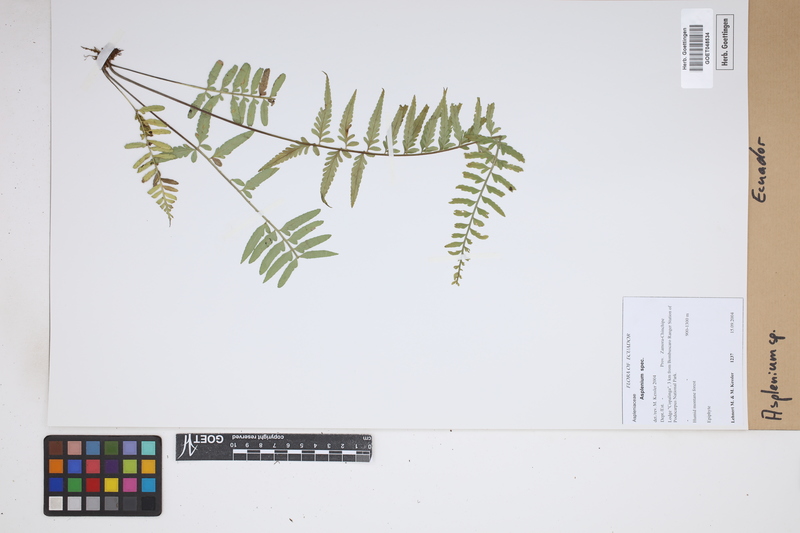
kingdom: Plantae
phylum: Tracheophyta
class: Polypodiopsida
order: Polypodiales
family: Aspleniaceae
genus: Asplenium
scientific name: Asplenium
